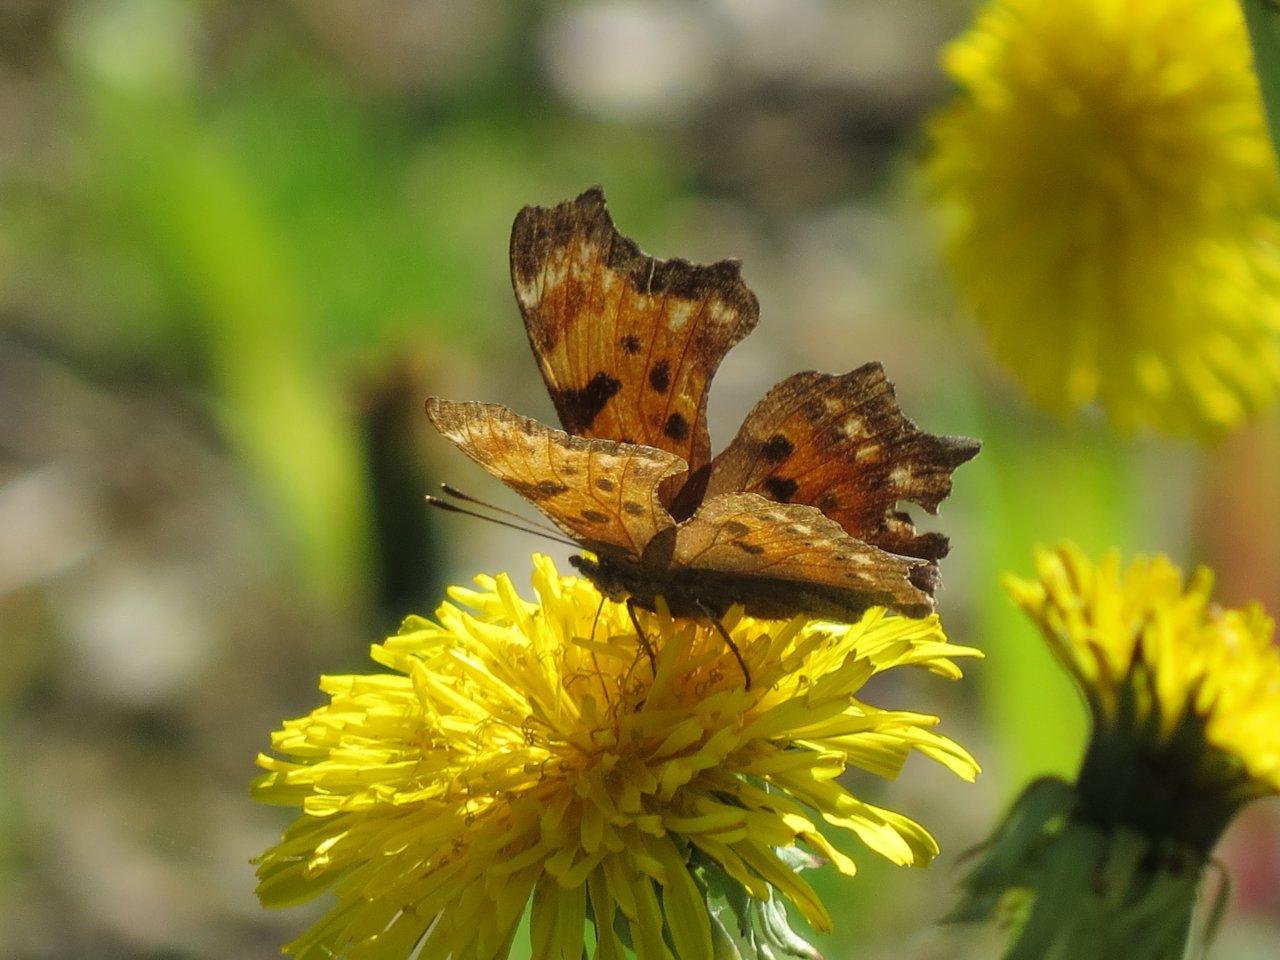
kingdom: Animalia
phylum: Arthropoda
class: Insecta
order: Lepidoptera
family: Nymphalidae
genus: Polygonia
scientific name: Polygonia faunus
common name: Green Comma
